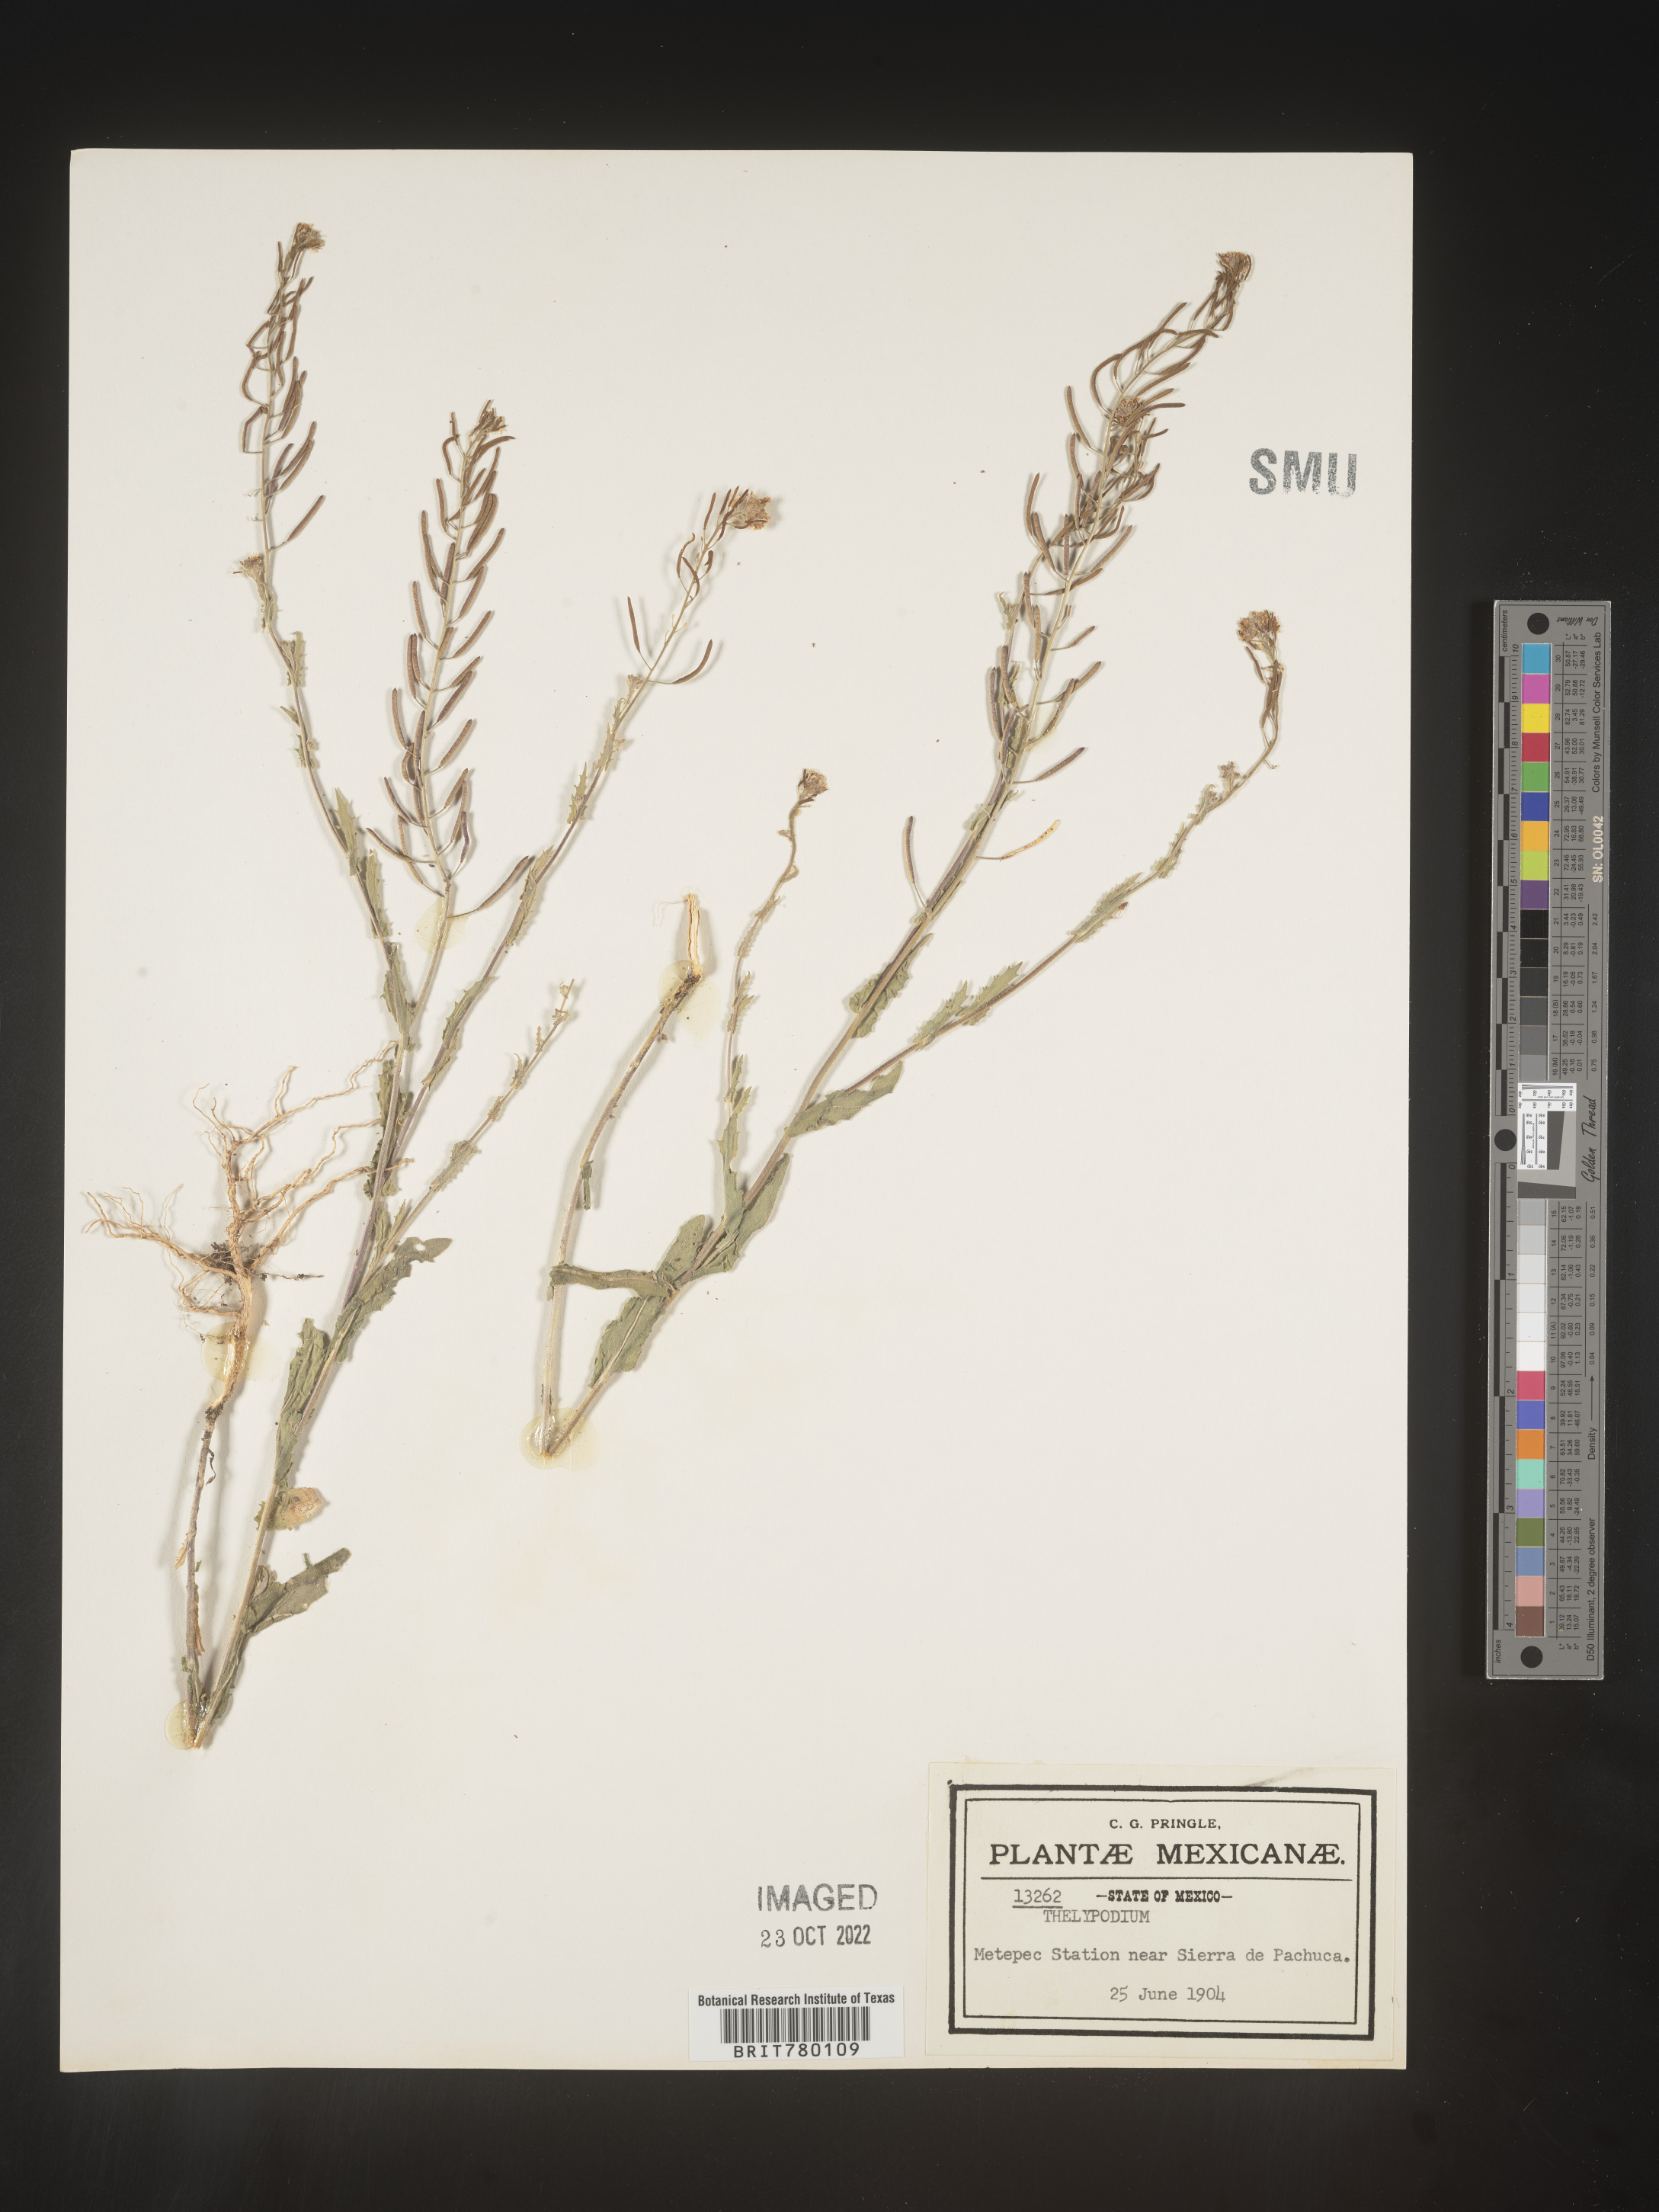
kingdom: Plantae
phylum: Tracheophyta
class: Magnoliopsida
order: Brassicales
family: Brassicaceae
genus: Thelypodium
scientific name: Thelypodium
